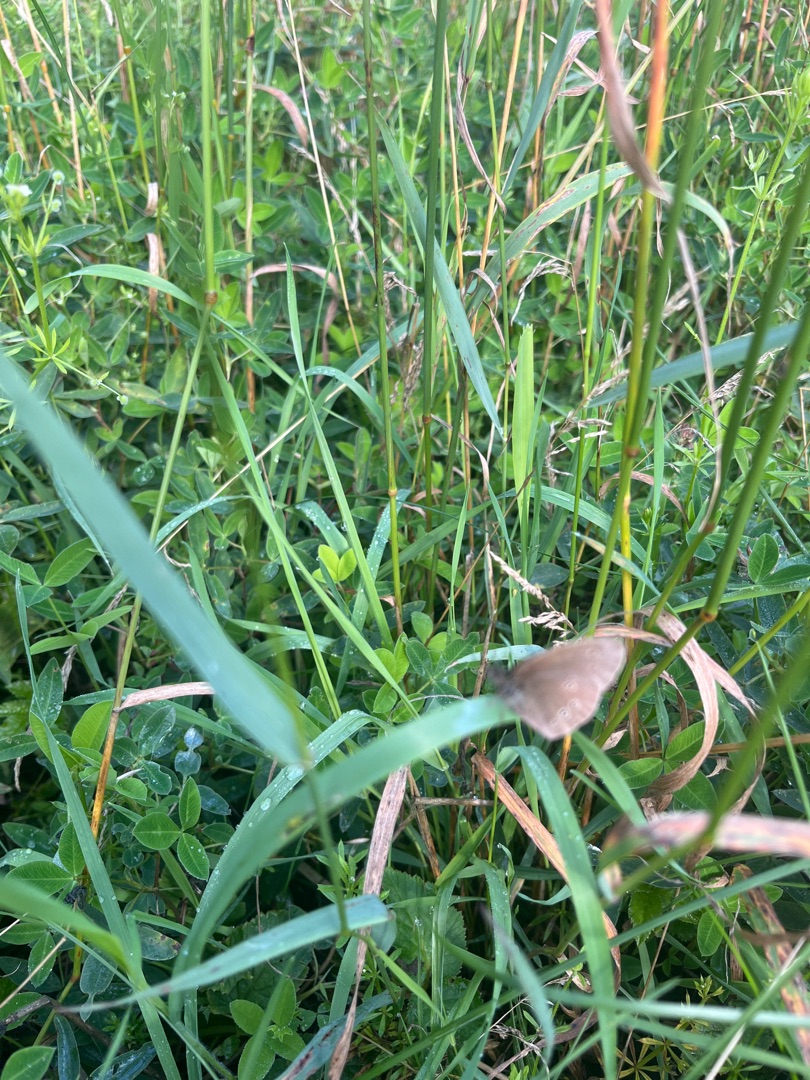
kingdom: Animalia
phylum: Arthropoda
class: Insecta
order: Lepidoptera
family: Nymphalidae
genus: Aphantopus
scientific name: Aphantopus hyperantus
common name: Engrandøje
